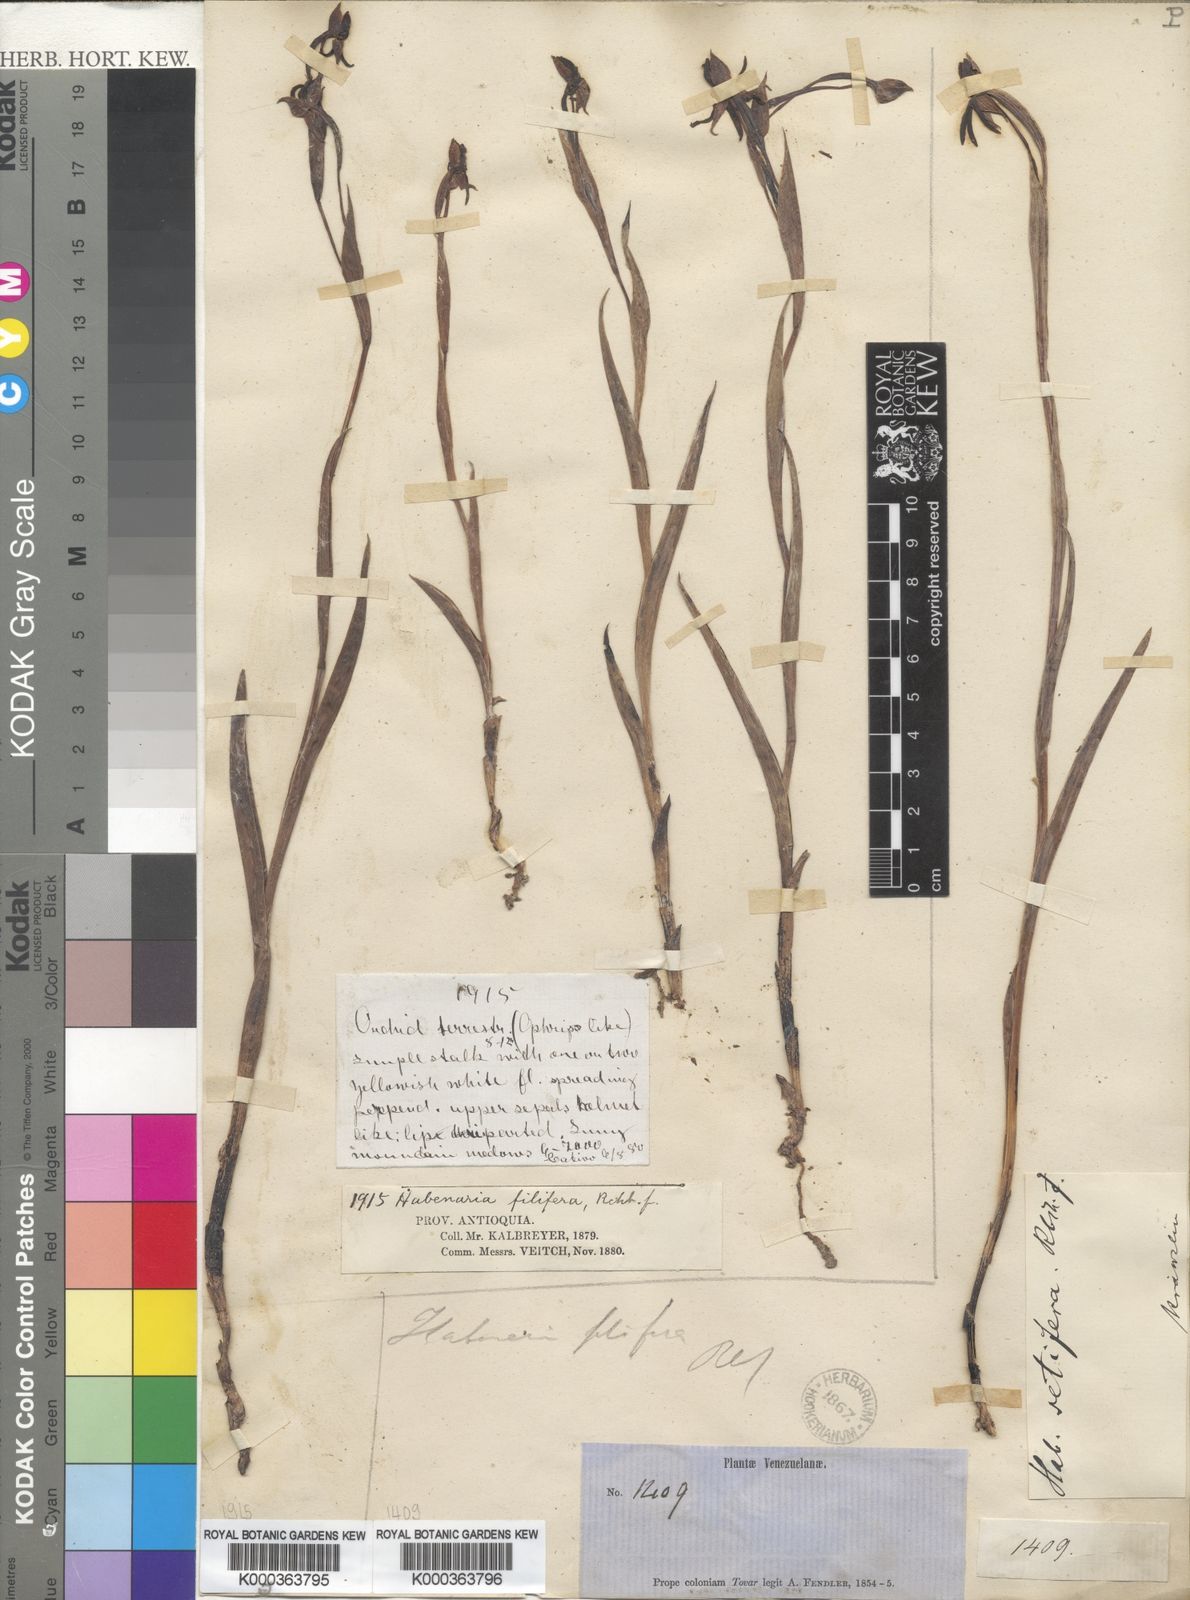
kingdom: Plantae
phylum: Tracheophyta
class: Liliopsida
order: Asparagales
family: Orchidaceae
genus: Habenaria
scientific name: Habenaria
